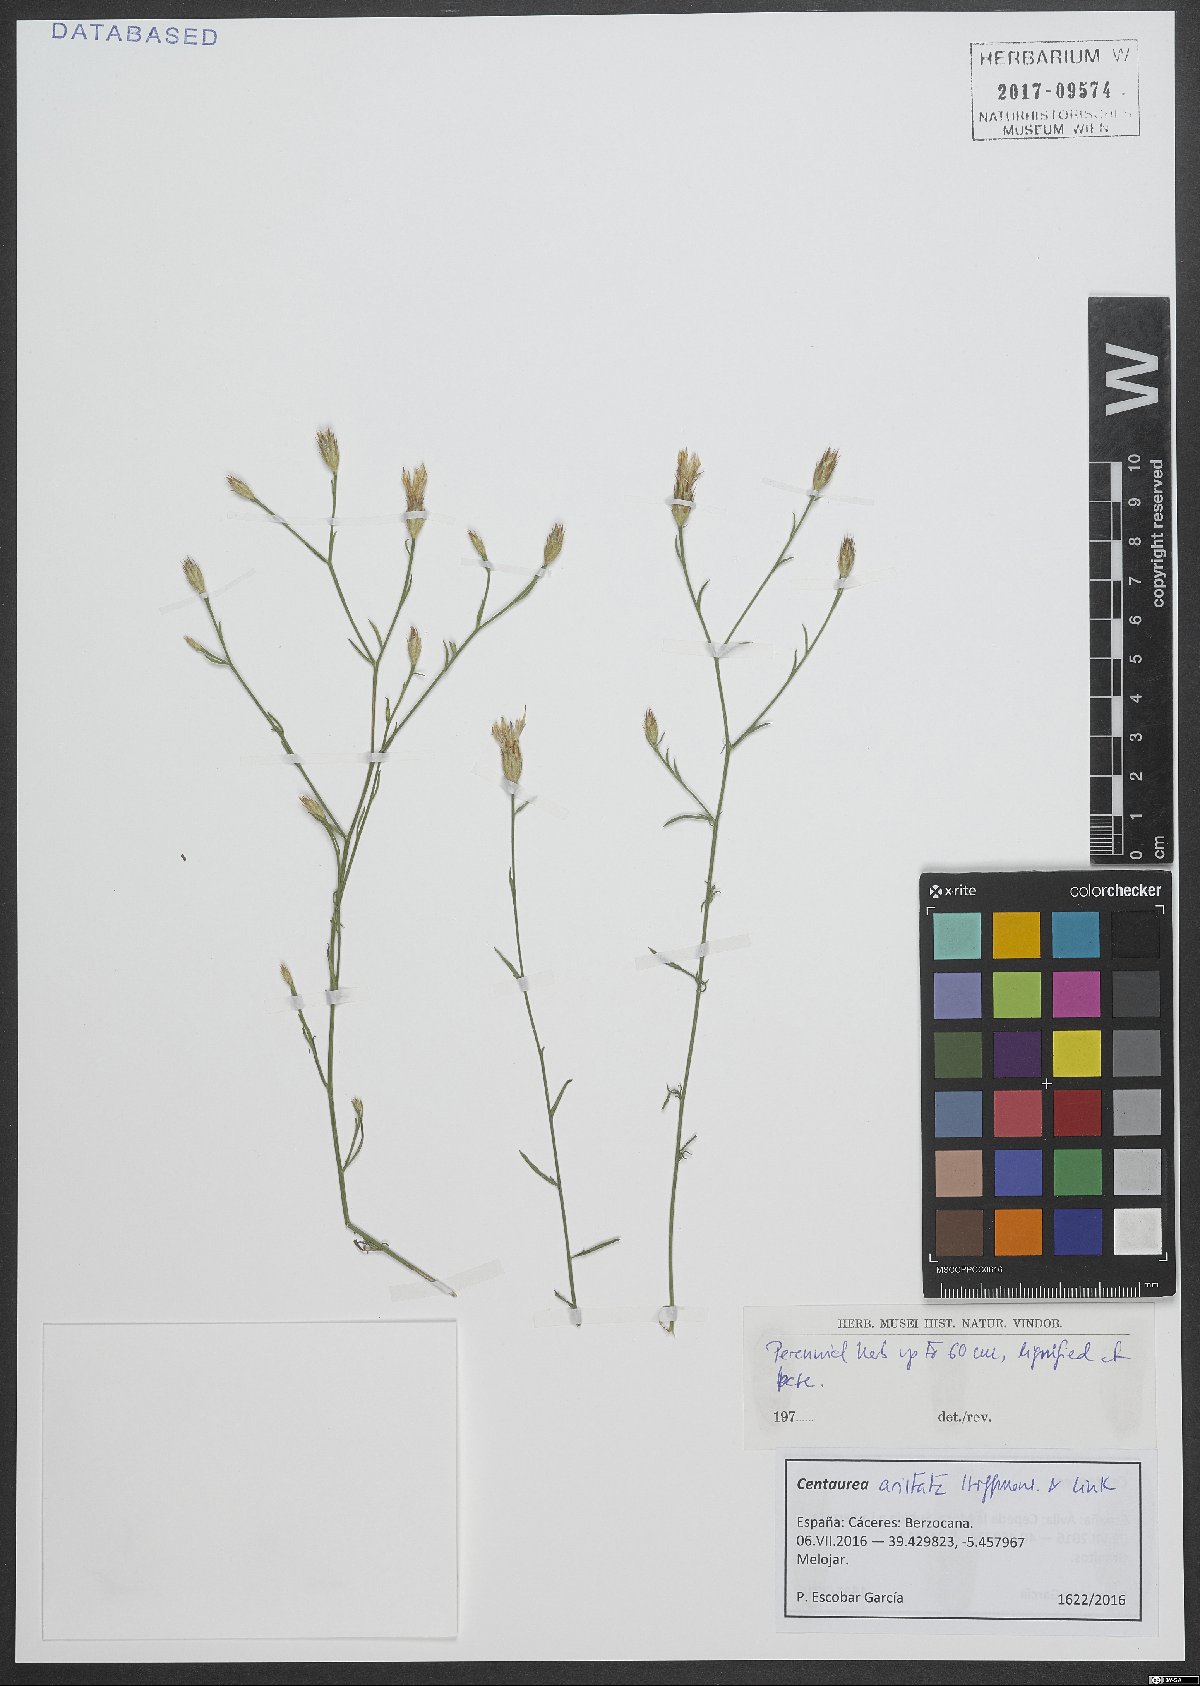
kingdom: Plantae
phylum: Tracheophyta
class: Magnoliopsida
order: Asterales
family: Asteraceae
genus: Centaurea
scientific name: Centaurea aristata
